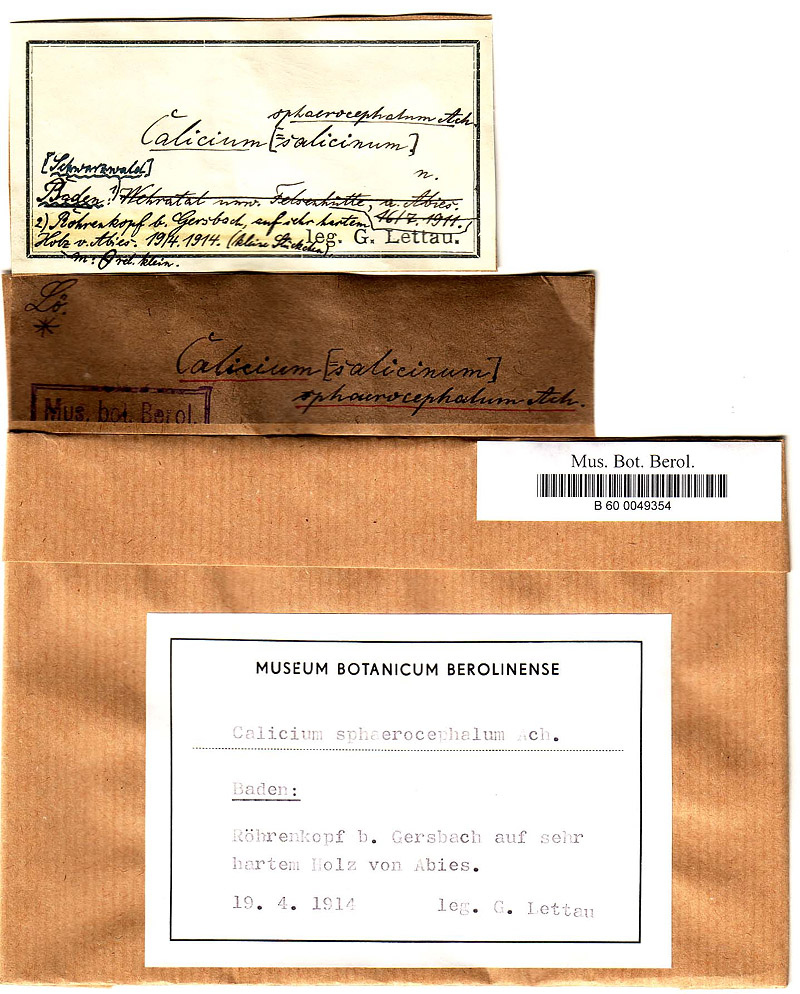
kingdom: Fungi
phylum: Ascomycota
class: Lecanoromycetes
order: Caliciales
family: Caliciaceae
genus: Calicium
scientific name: Calicium salicinum
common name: Rusted stubble lichen
